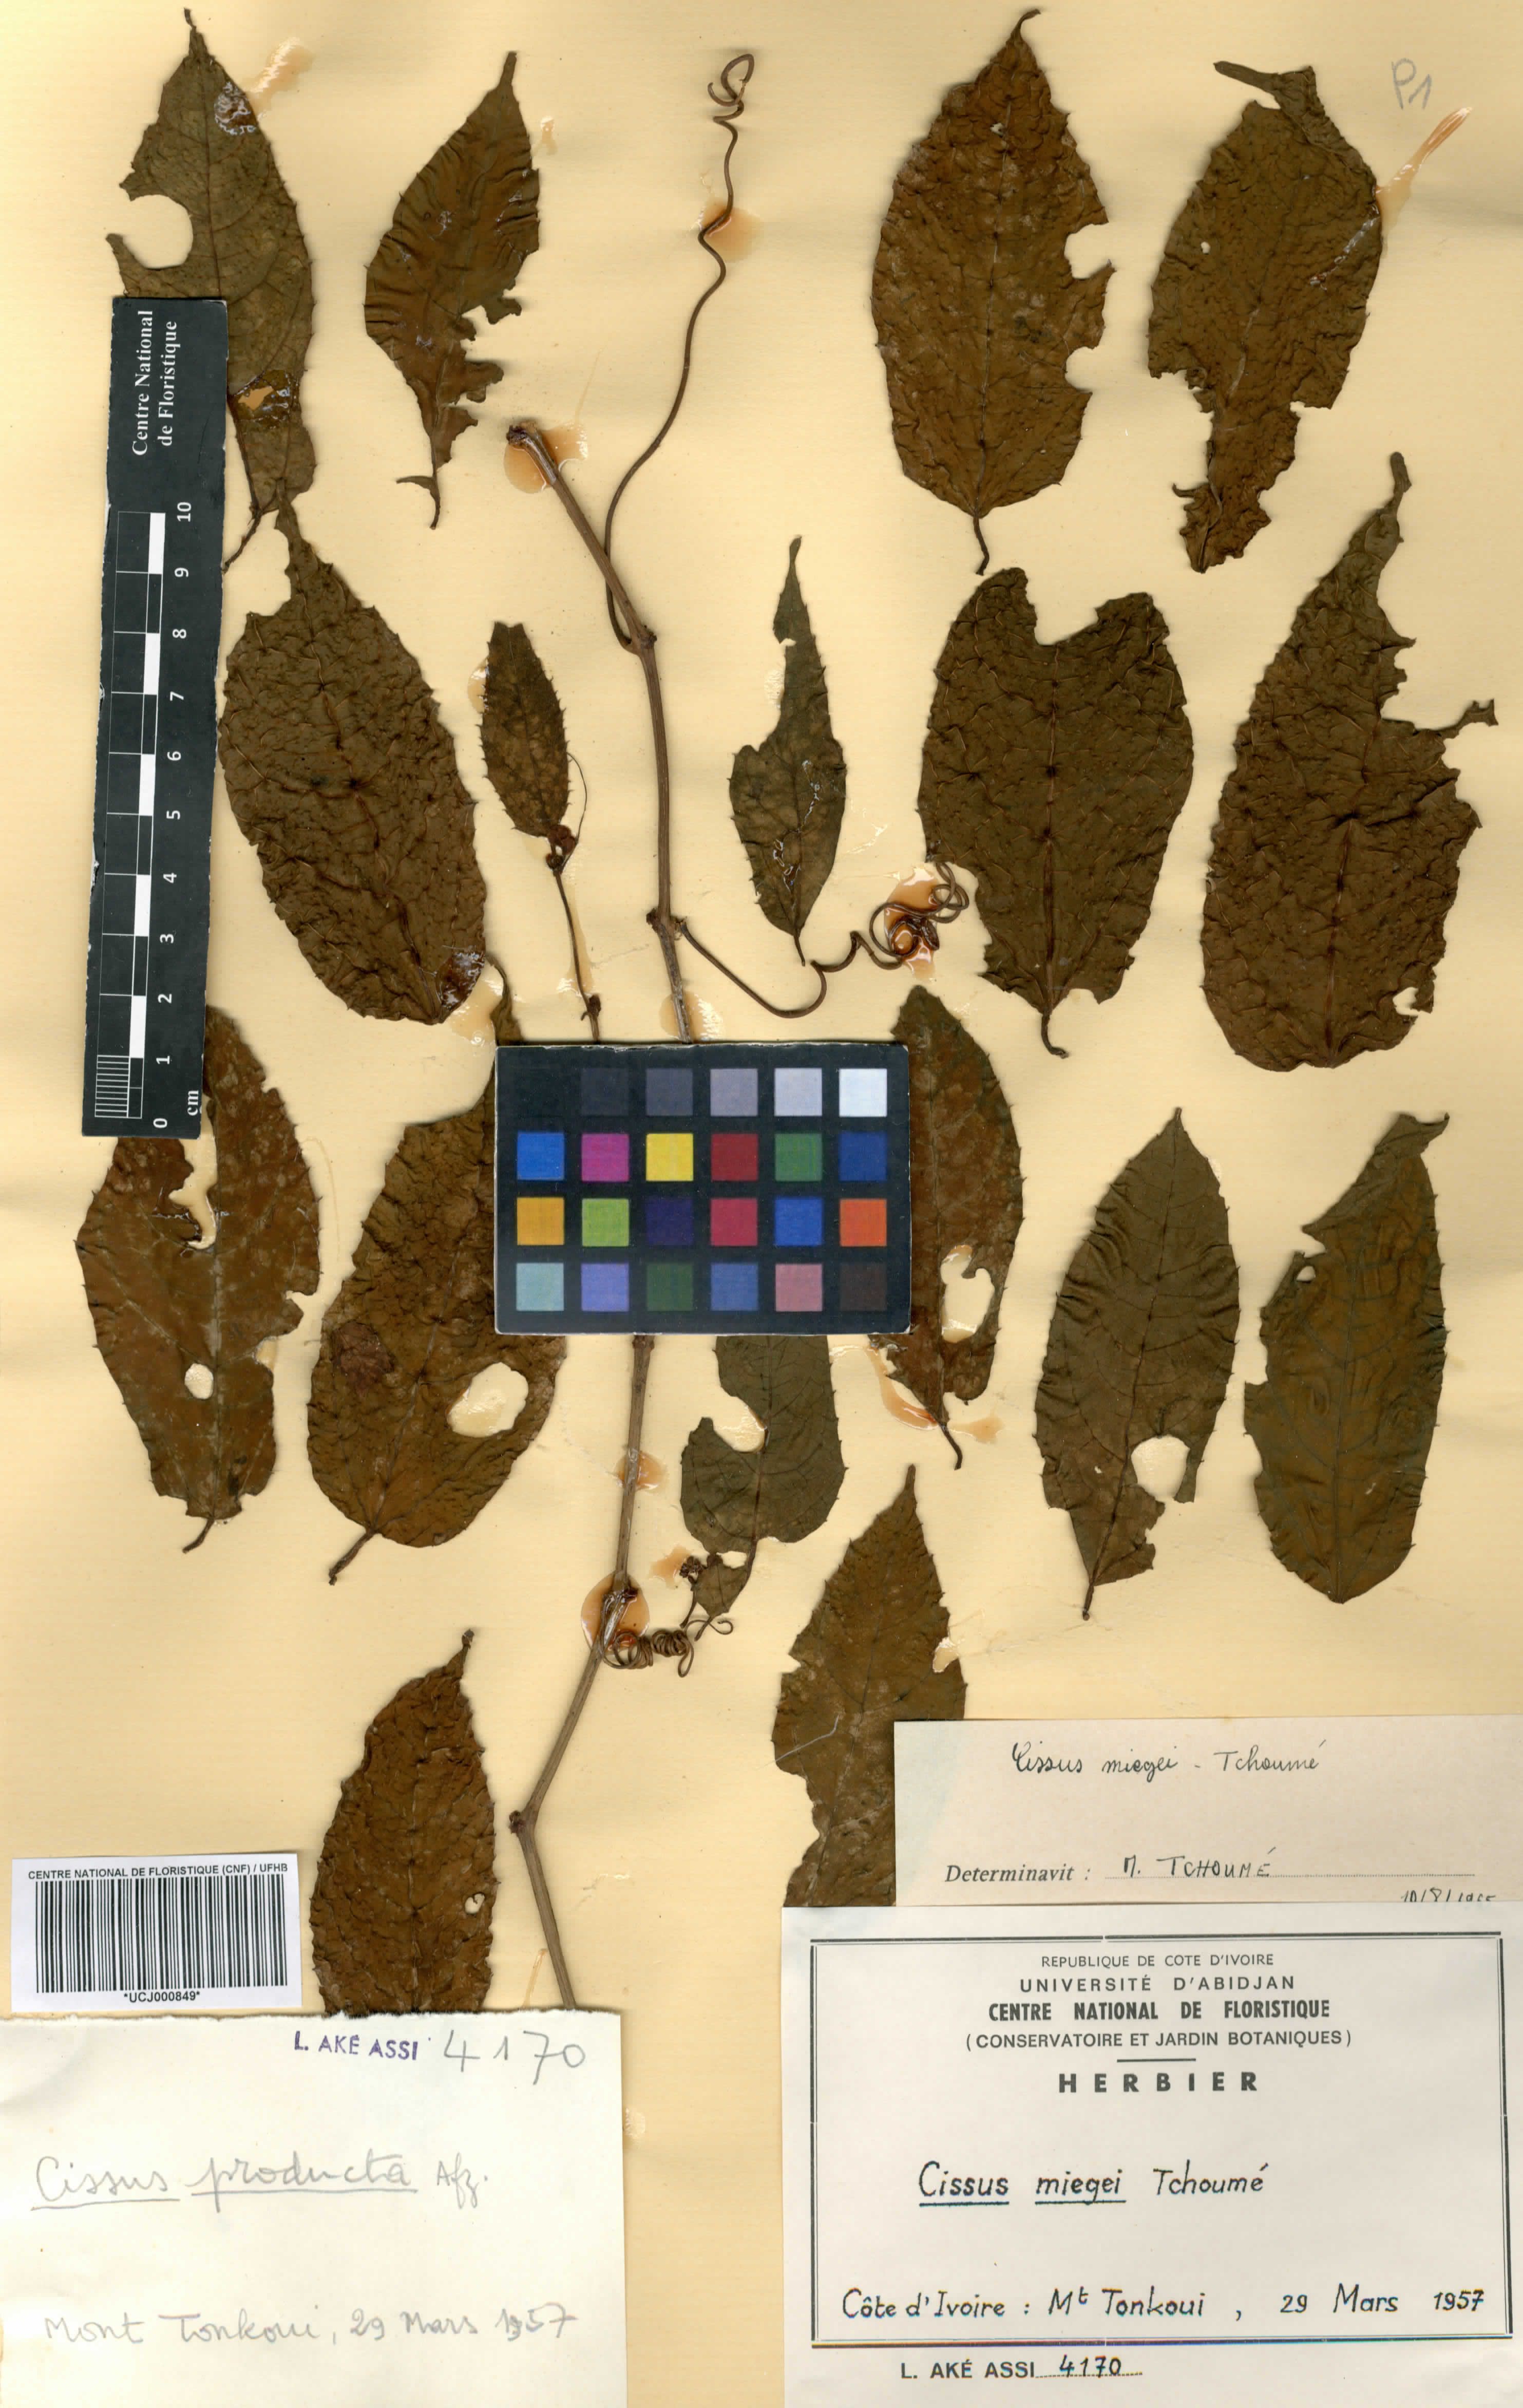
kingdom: Plantae
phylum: Tracheophyta
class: Magnoliopsida
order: Vitales
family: Vitaceae
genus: Cissus
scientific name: Cissus miegei
